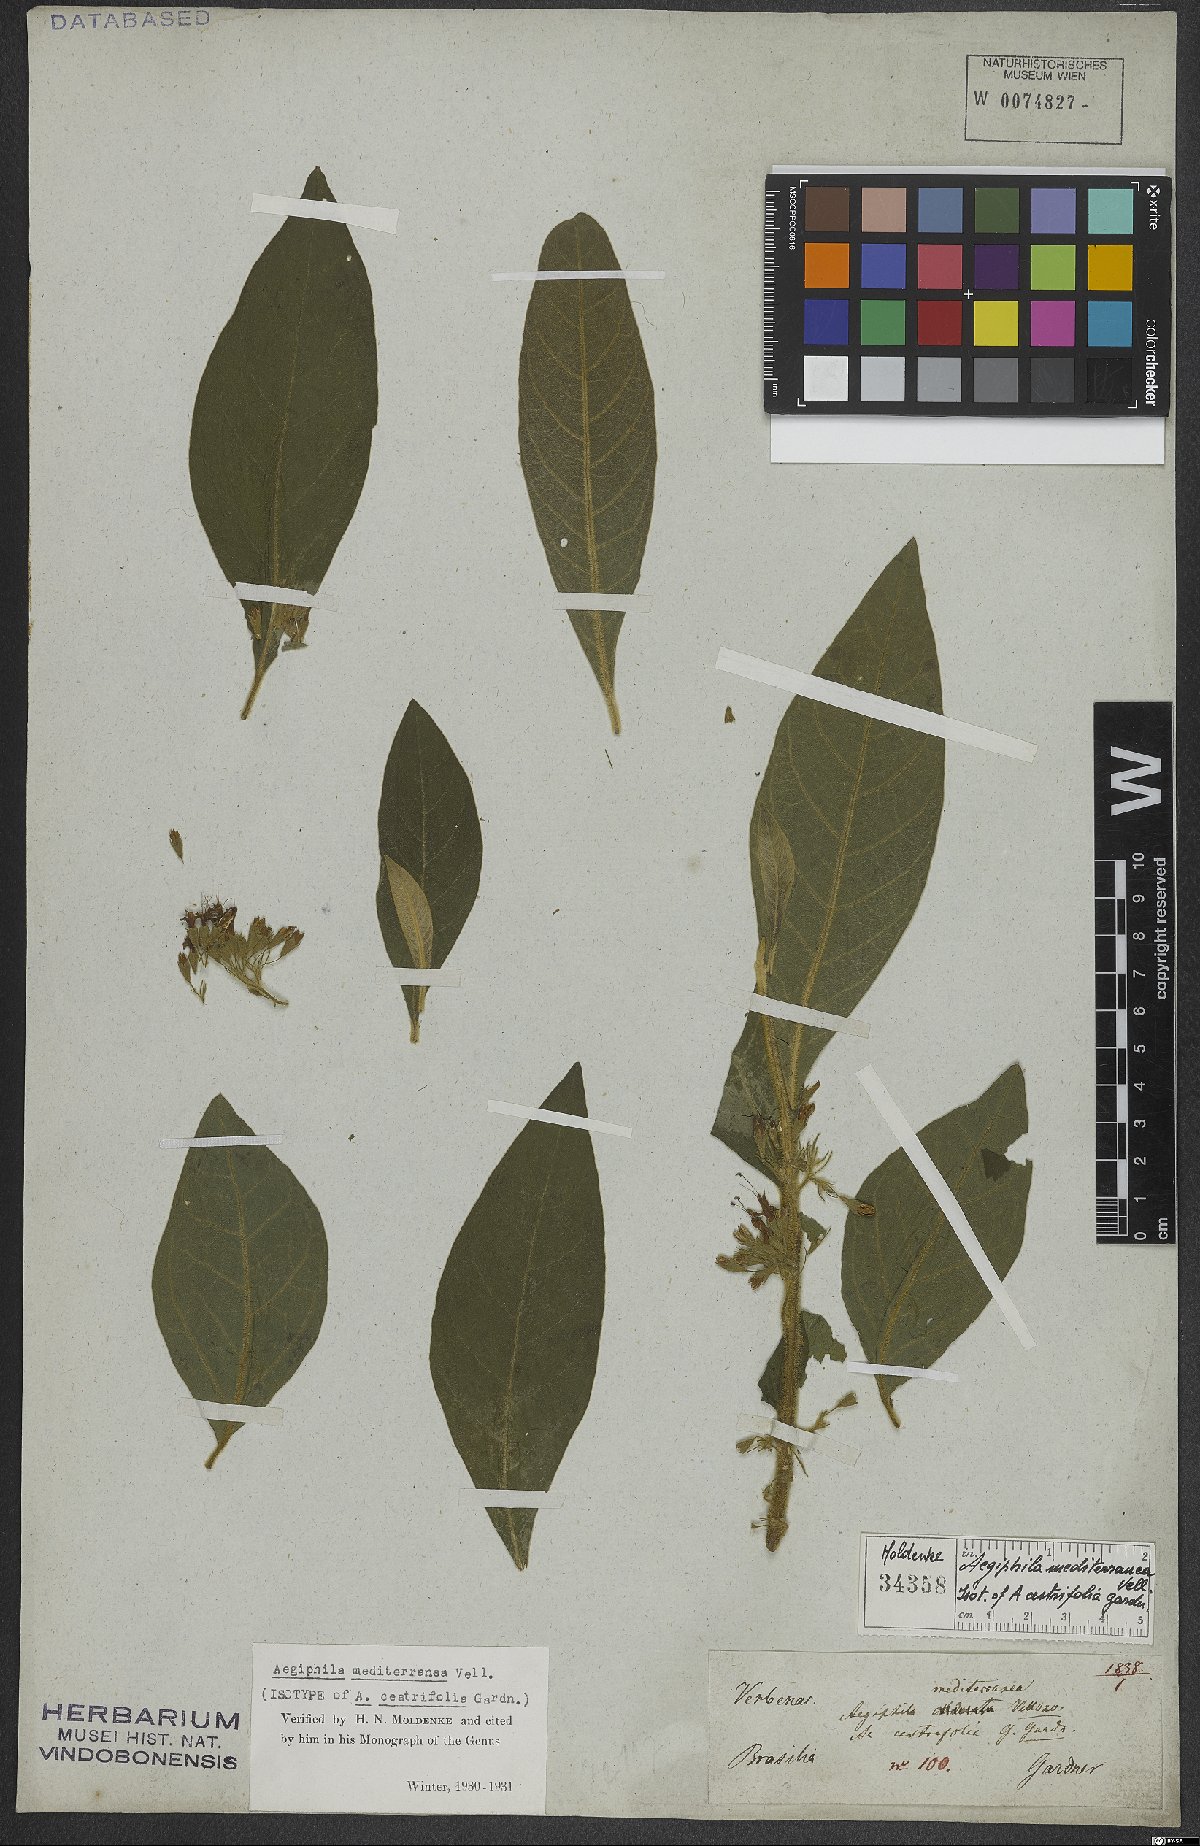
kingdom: Plantae
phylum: Tracheophyta
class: Magnoliopsida
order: Lamiales
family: Lamiaceae
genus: Aegiphila
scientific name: Aegiphila mediterranea
